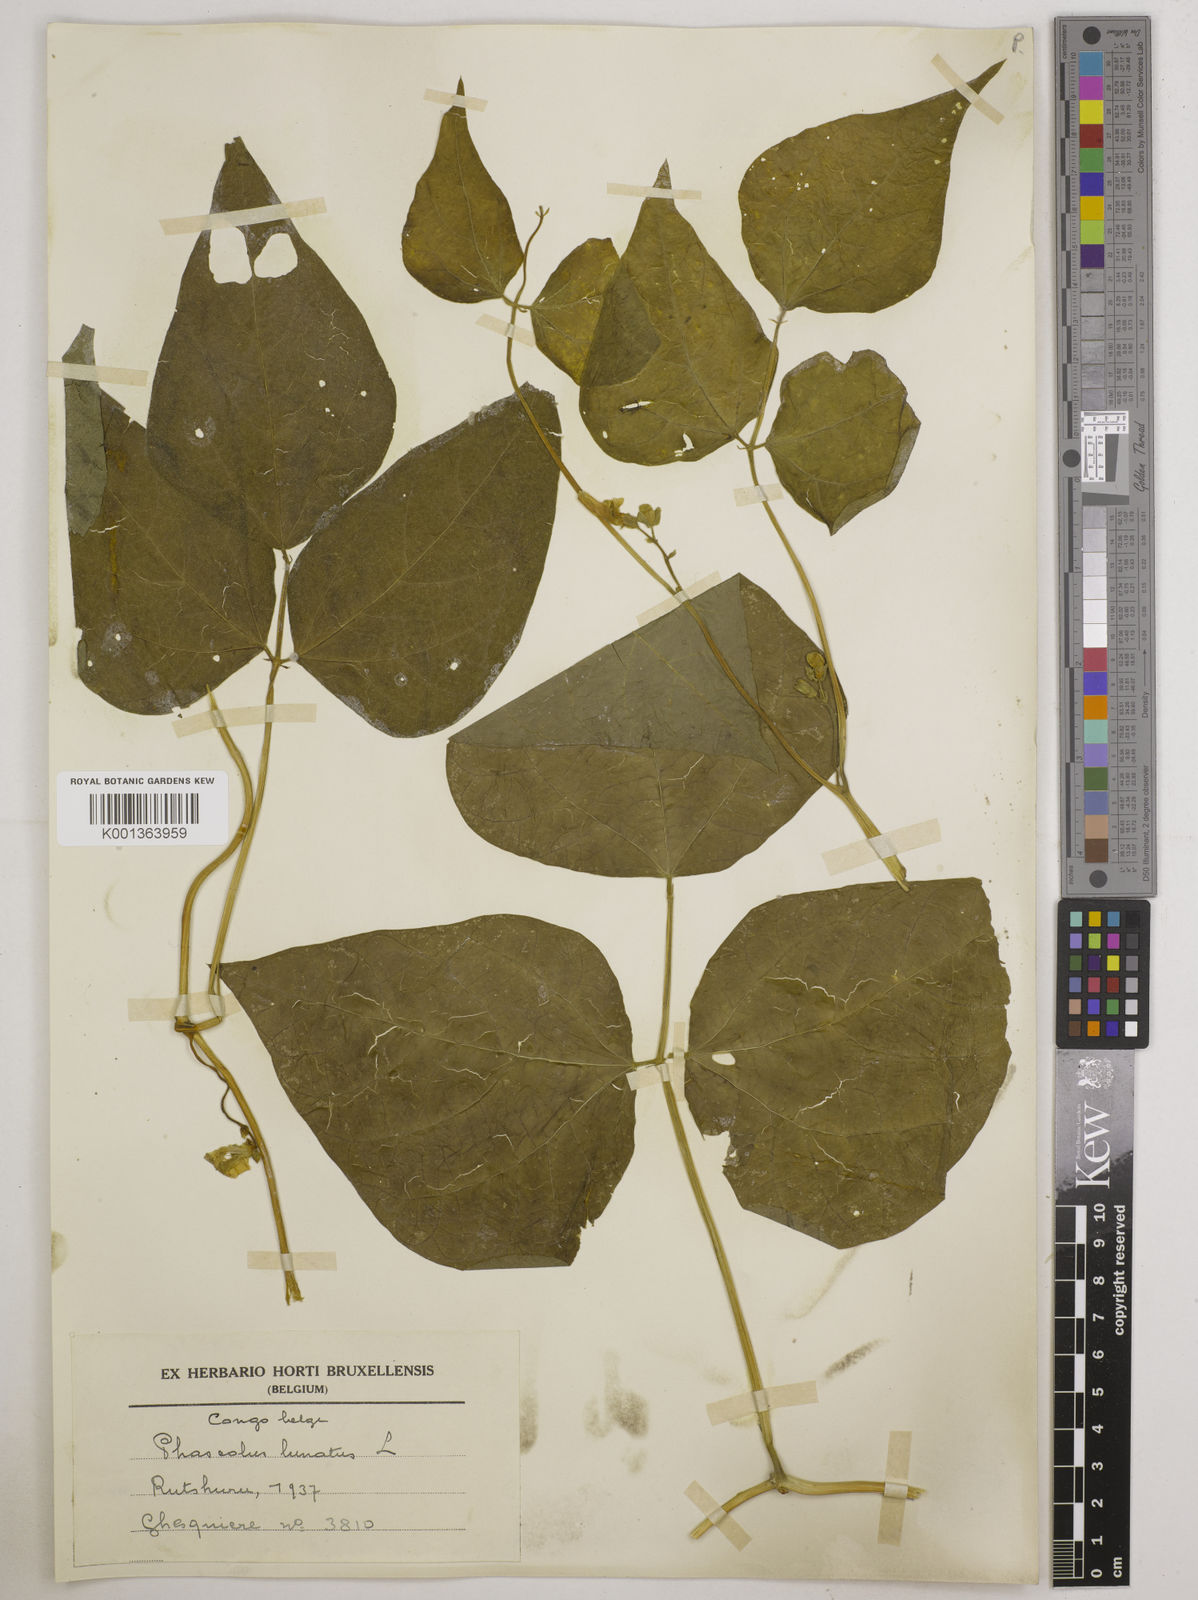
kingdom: Plantae
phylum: Tracheophyta
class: Magnoliopsida
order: Fabales
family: Fabaceae
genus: Phaseolus
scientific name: Phaseolus lunatus
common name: Sieva bean
